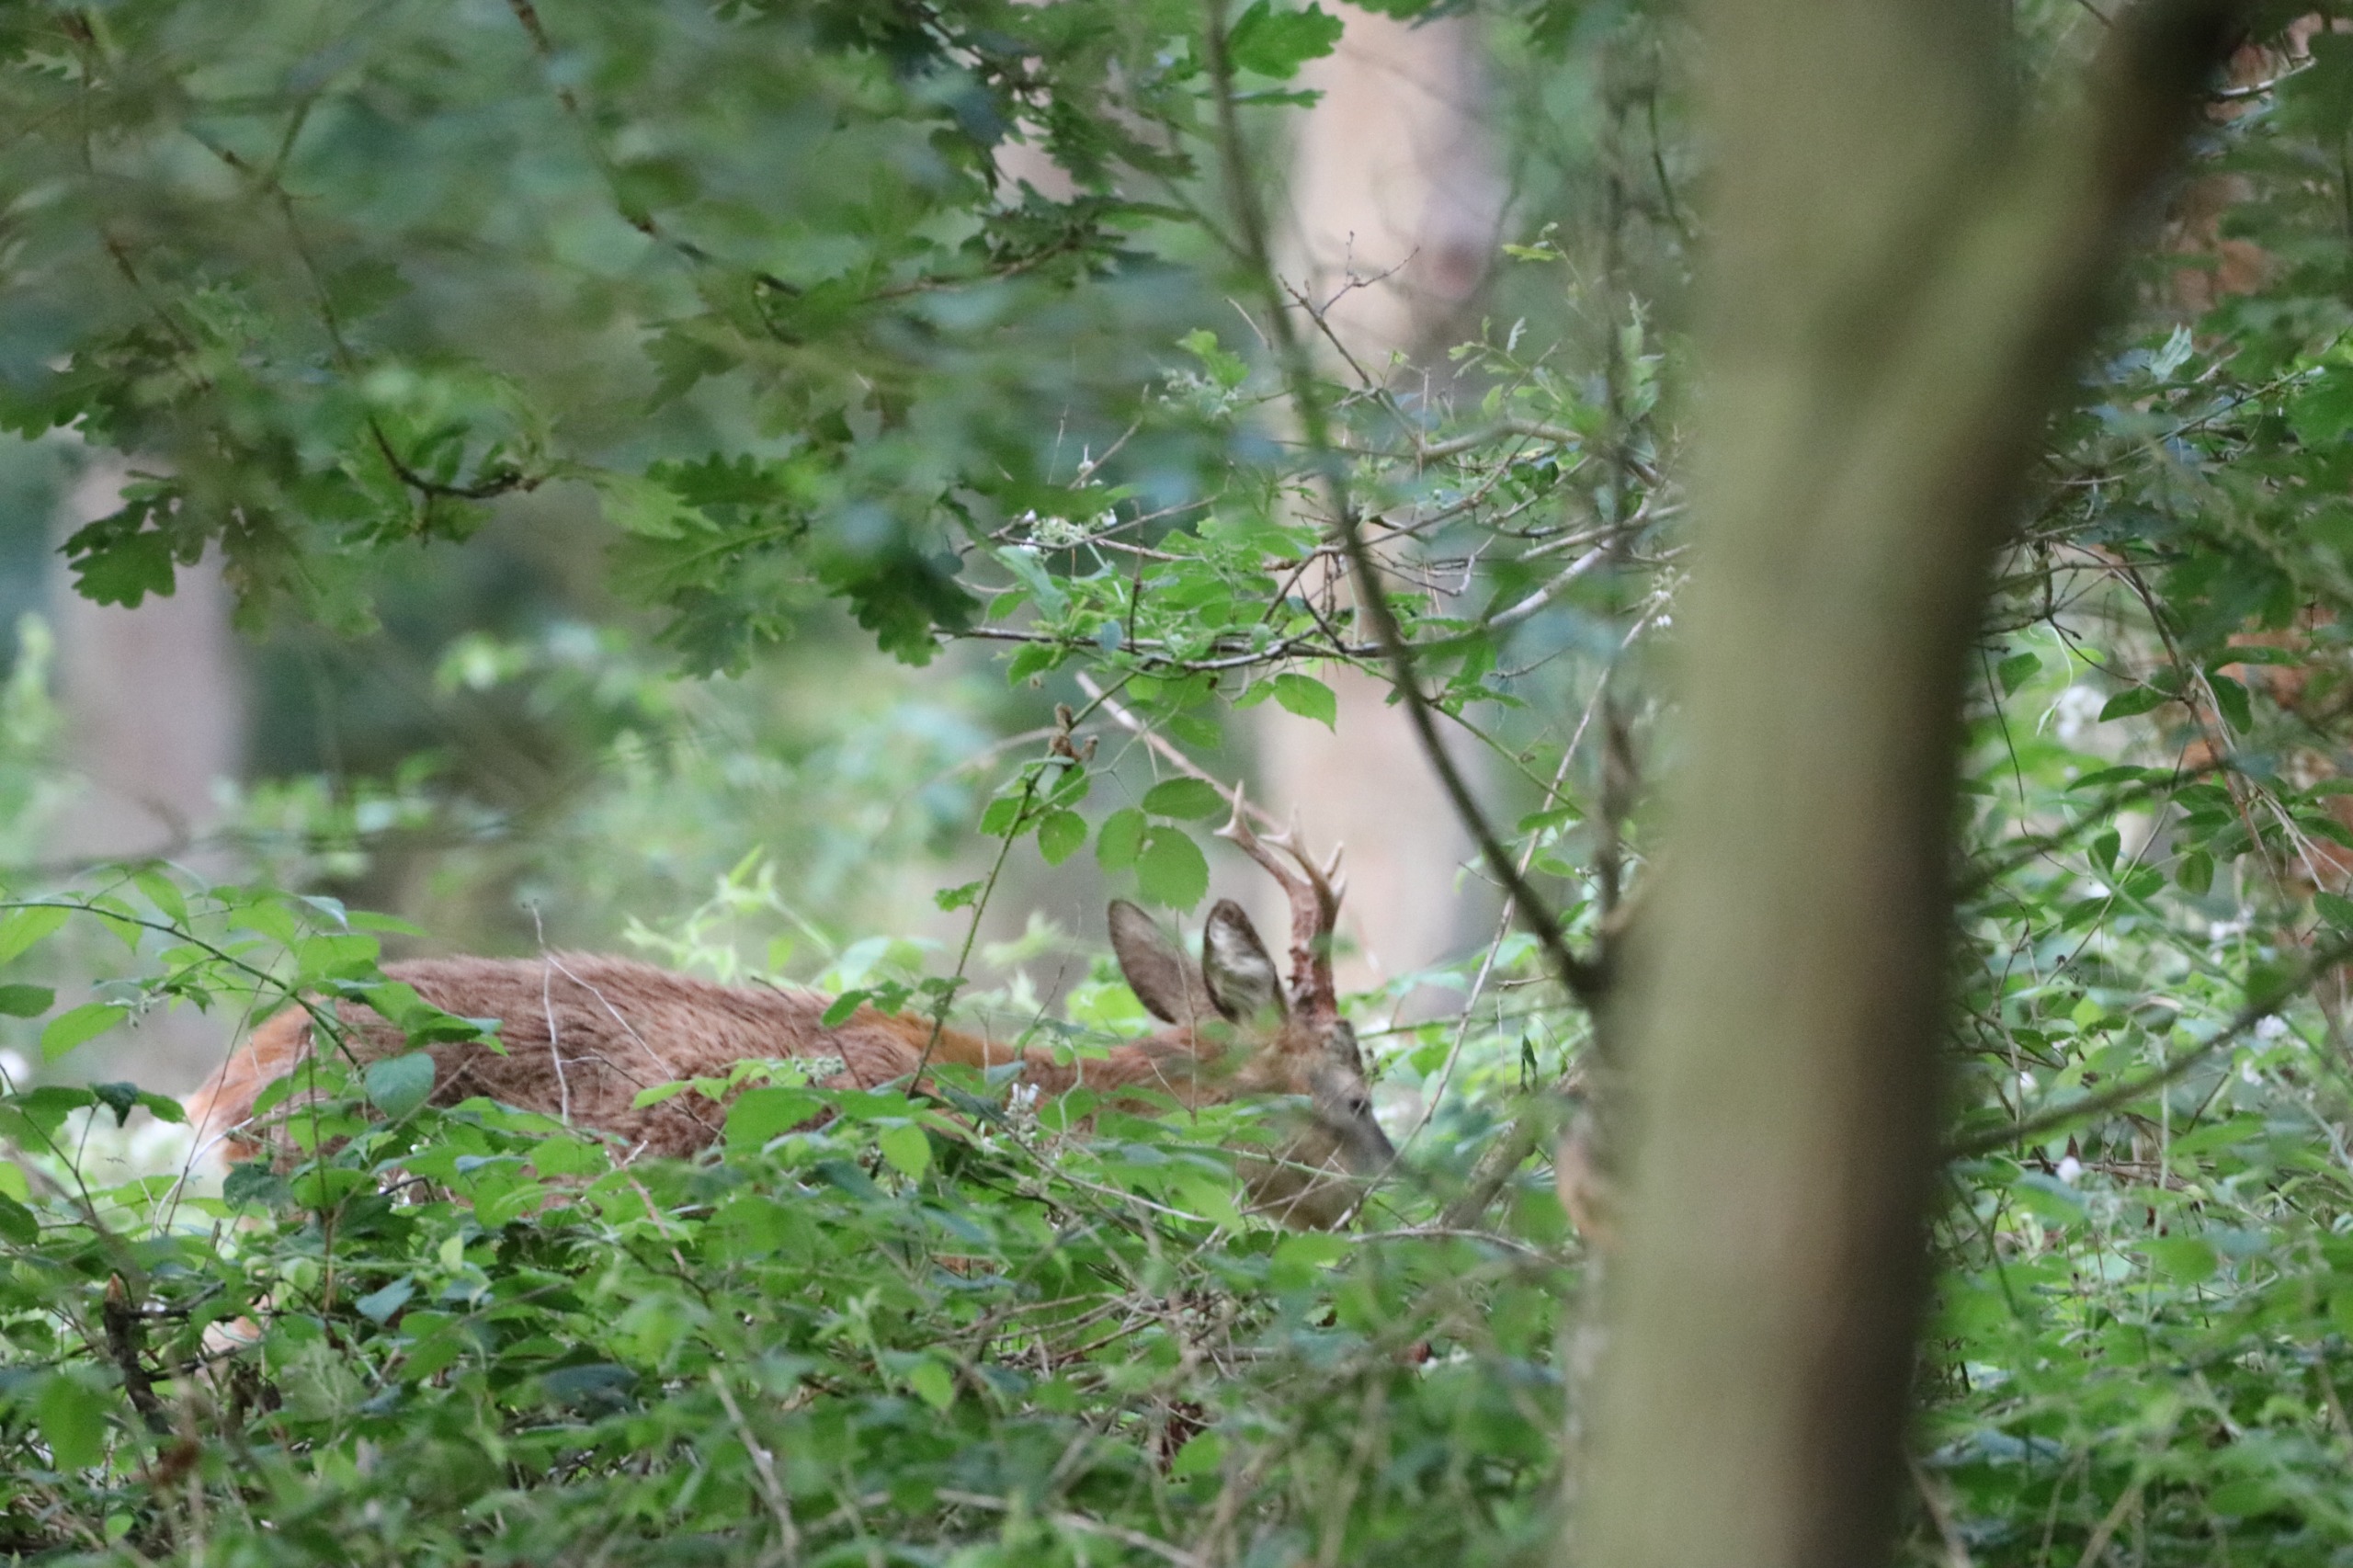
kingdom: Animalia
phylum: Chordata
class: Mammalia
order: Artiodactyla
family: Cervidae
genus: Capreolus
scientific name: Capreolus capreolus
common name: Rådyr
